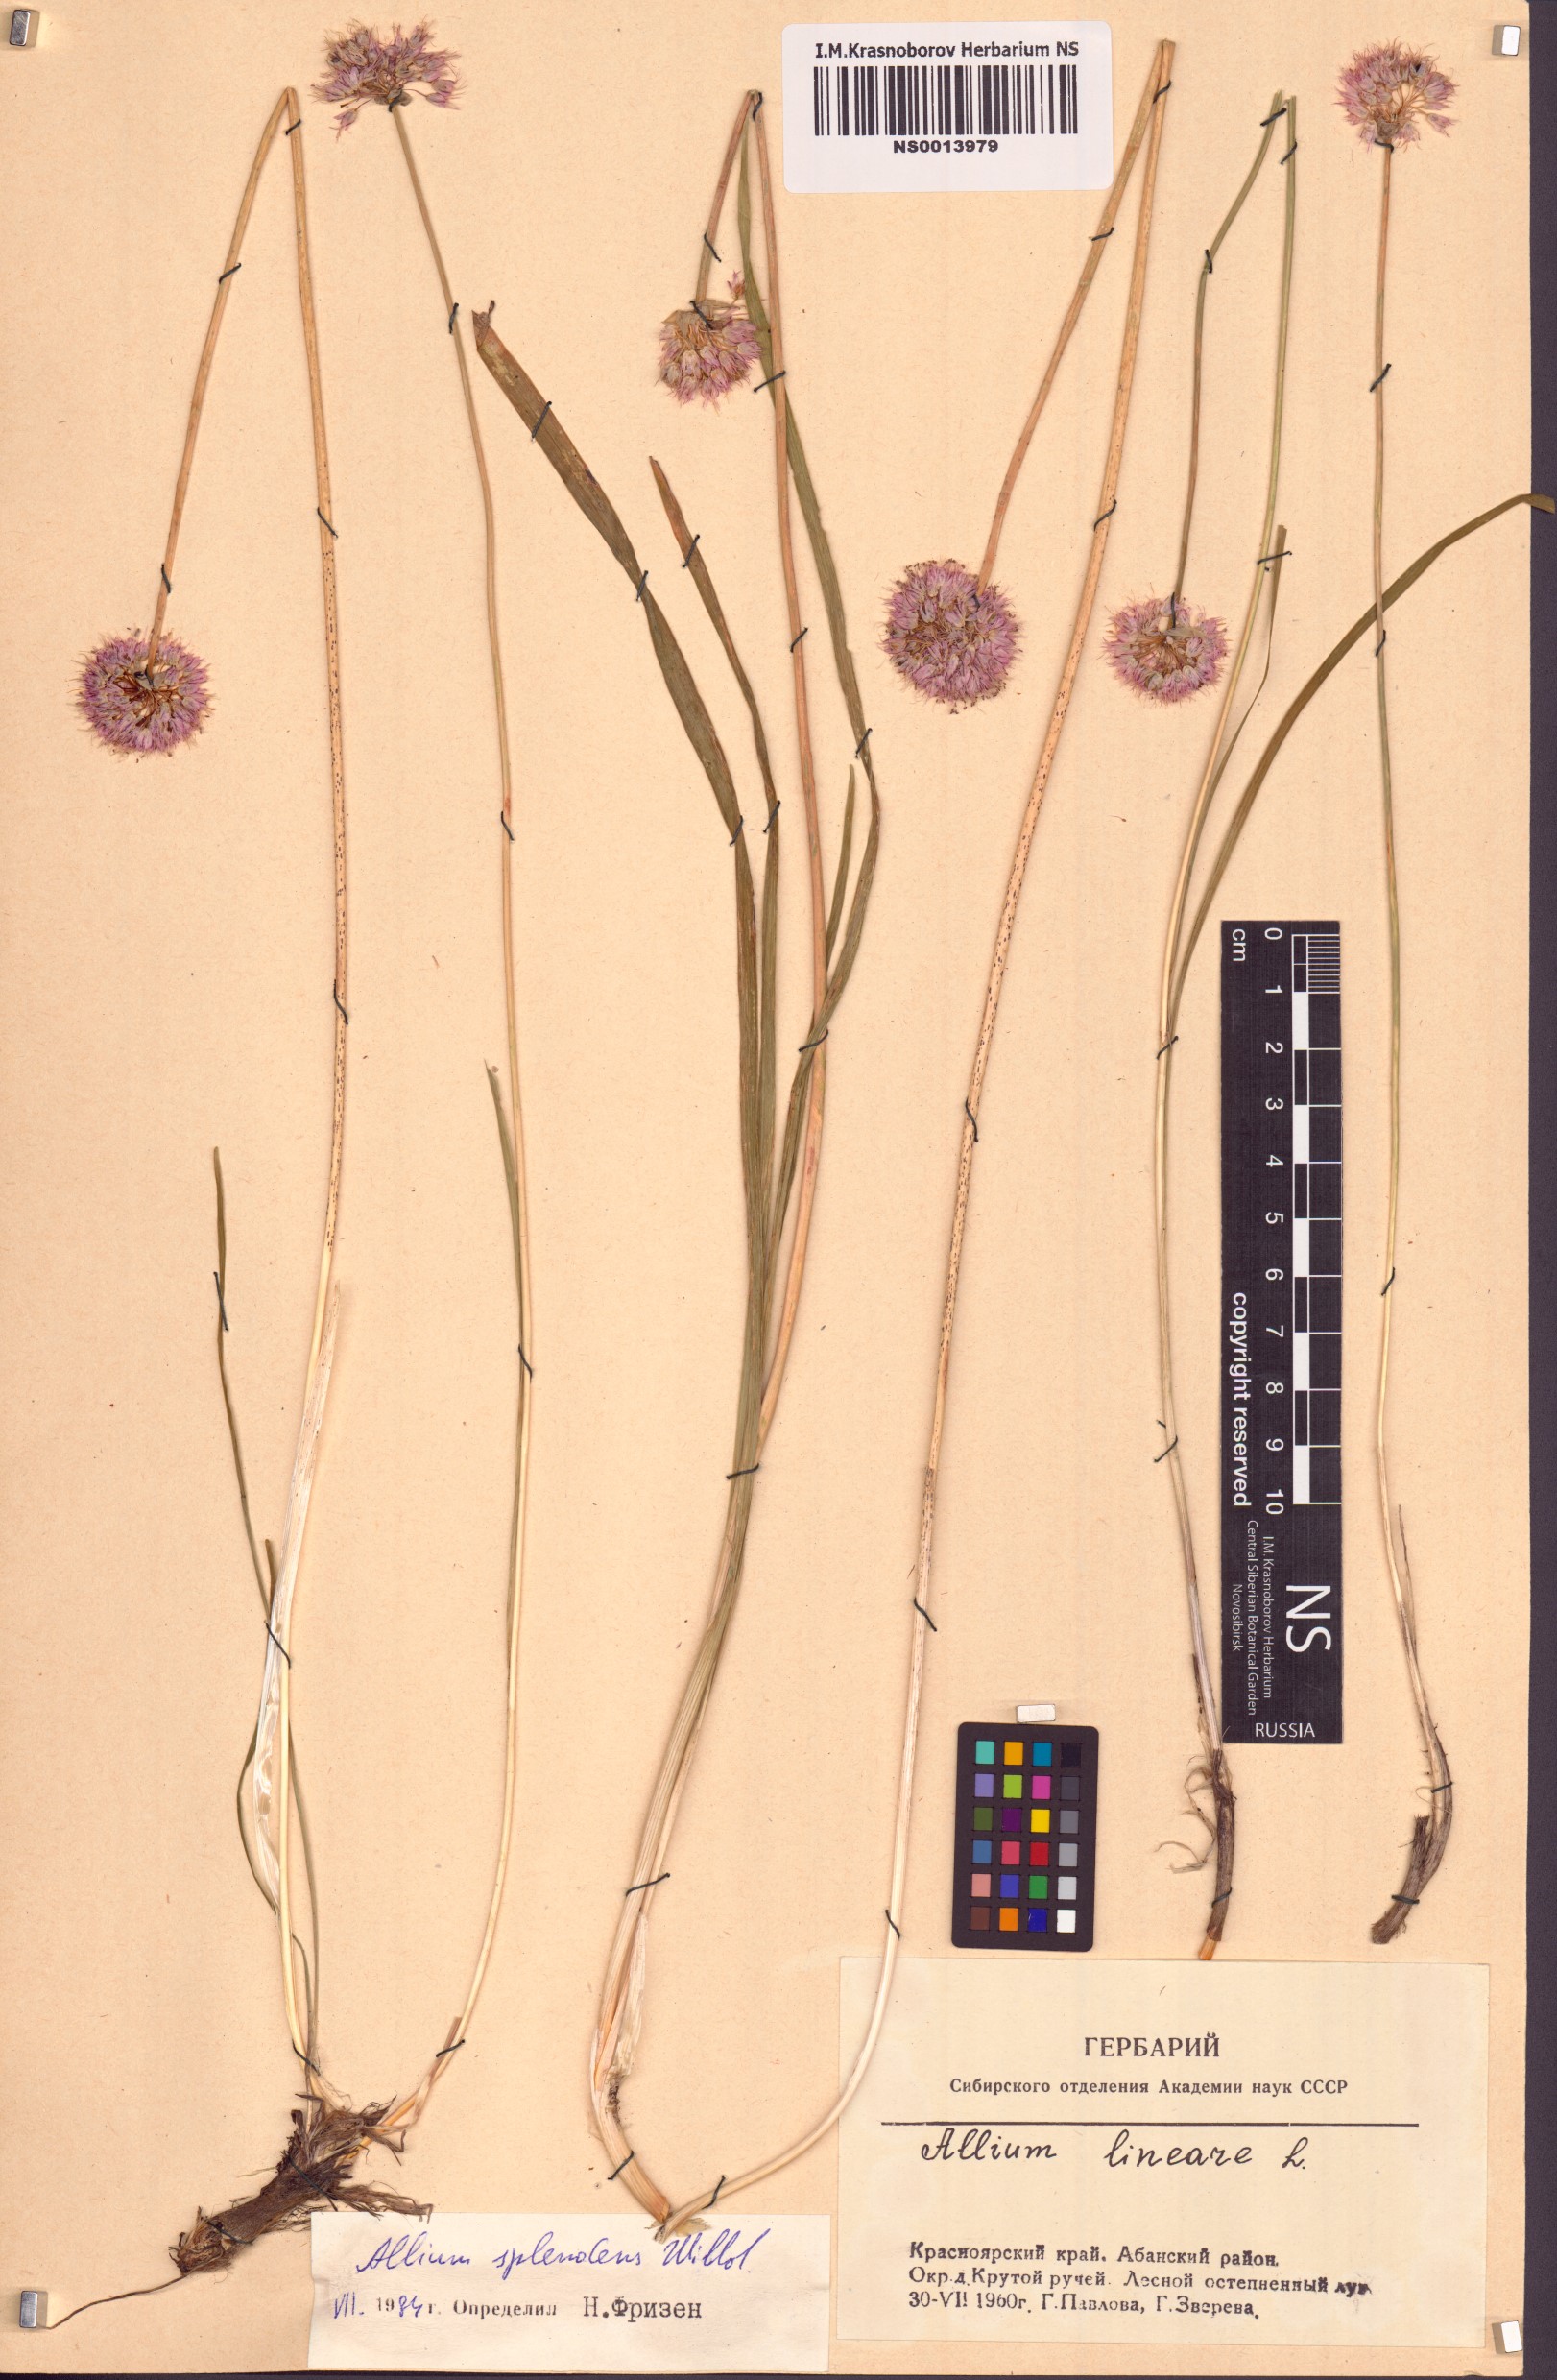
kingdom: Plantae
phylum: Tracheophyta
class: Liliopsida
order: Asparagales
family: Amaryllidaceae
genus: Allium
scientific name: Allium splendens
